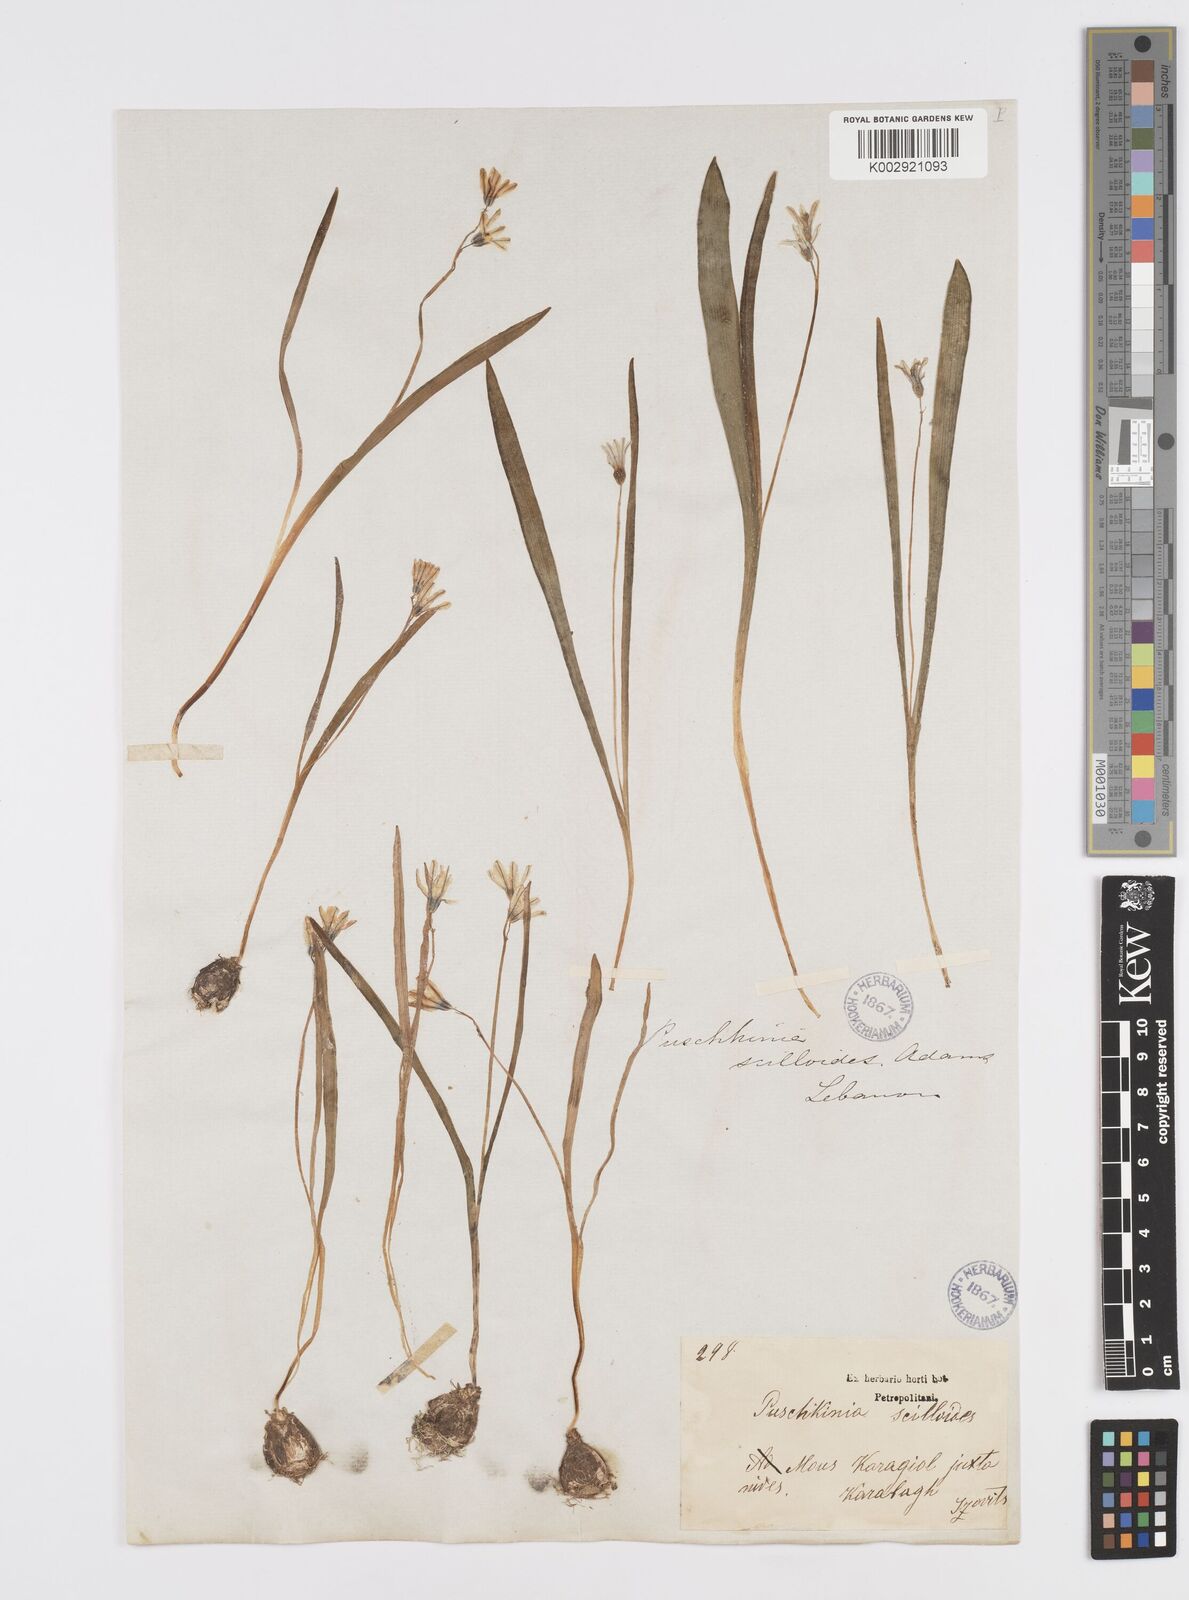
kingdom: Plantae
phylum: Tracheophyta
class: Liliopsida
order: Asparagales
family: Asparagaceae
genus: Puschkinia
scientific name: Puschkinia scilloides
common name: Striped squill
